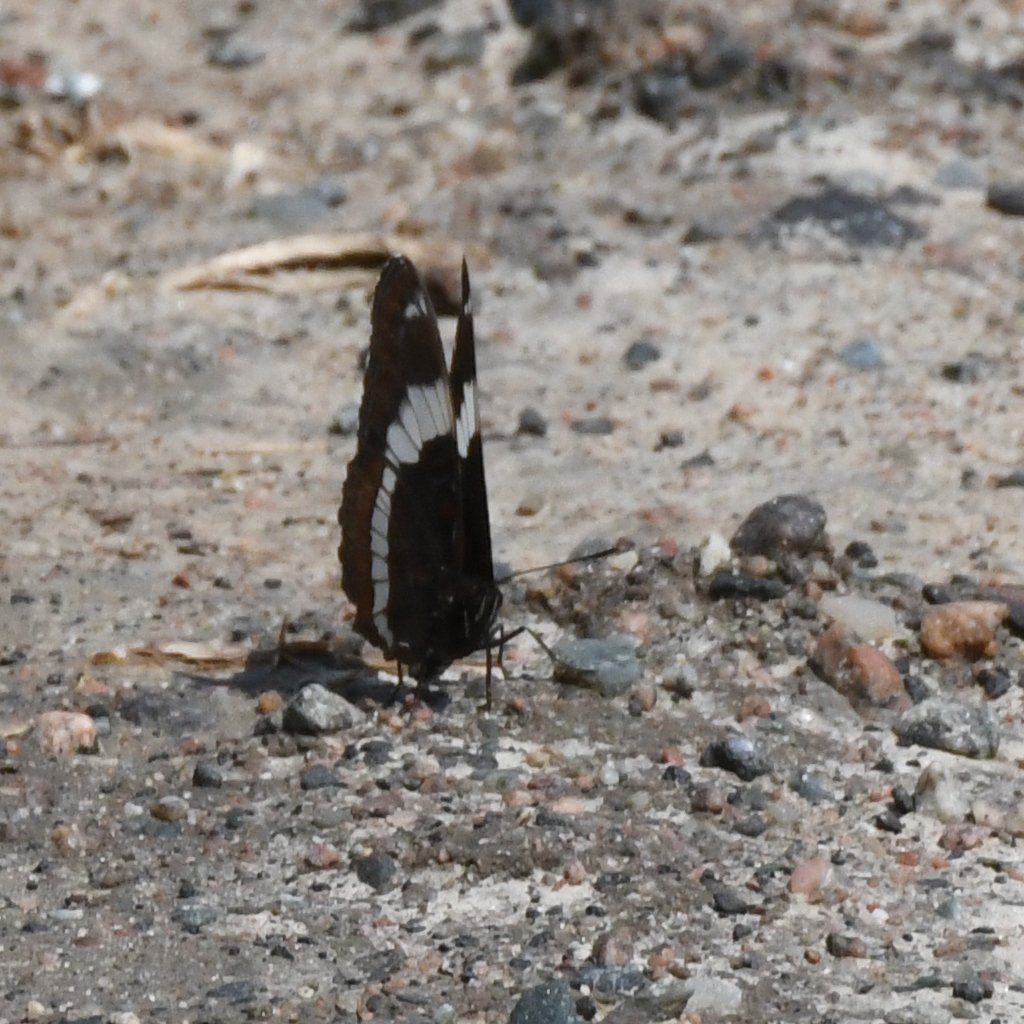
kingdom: Animalia
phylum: Arthropoda
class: Insecta
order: Lepidoptera
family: Nymphalidae
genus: Limenitis
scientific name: Limenitis arthemis
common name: Red-spotted Admiral
